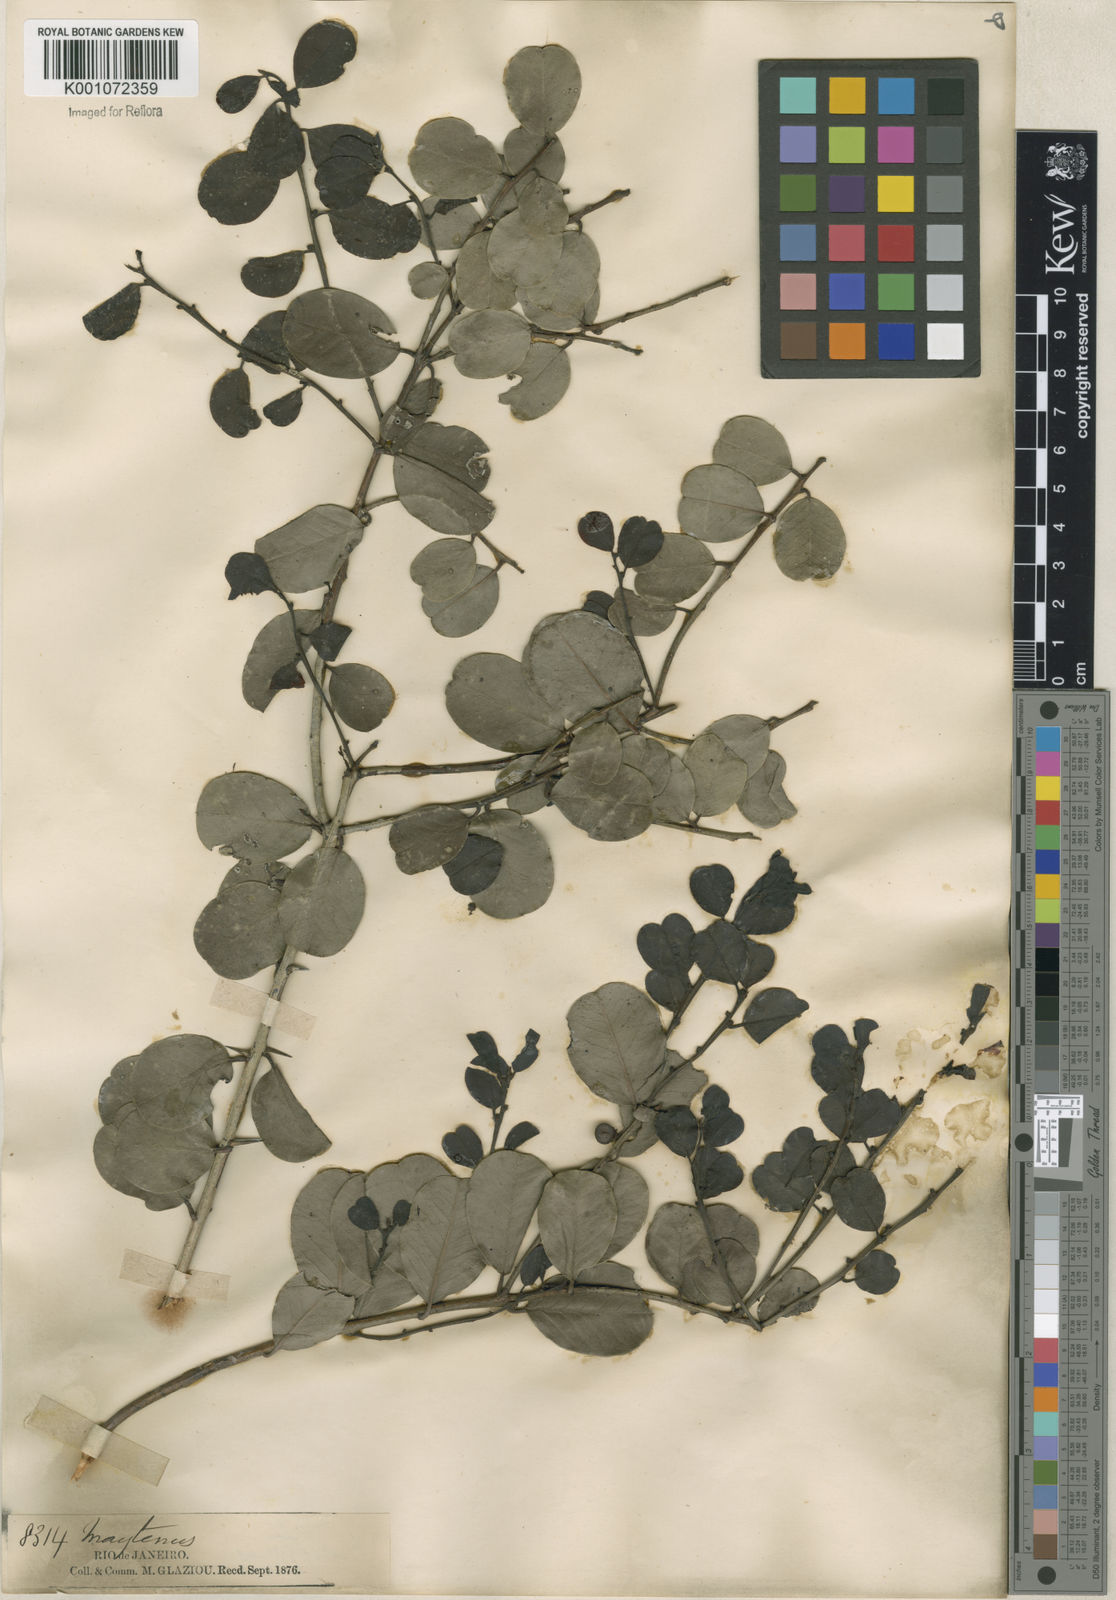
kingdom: Plantae
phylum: Tracheophyta
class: Magnoliopsida
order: Celastrales
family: Celastraceae
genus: Maytenus
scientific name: Maytenus
